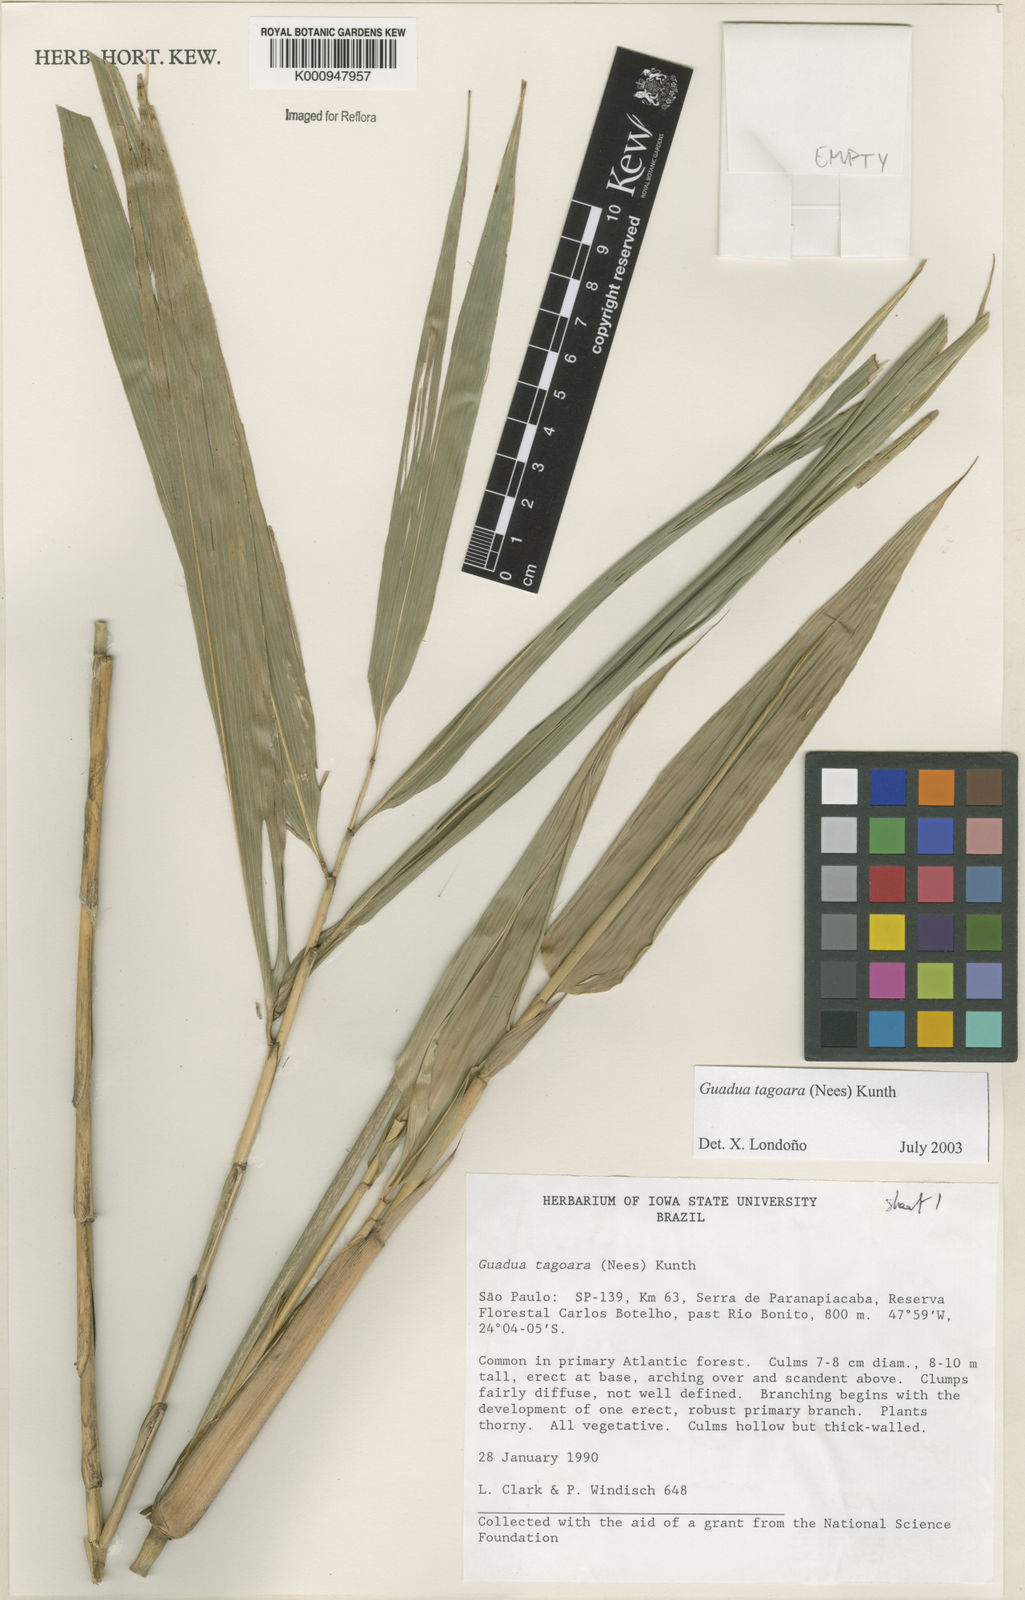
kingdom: Plantae
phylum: Tracheophyta
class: Liliopsida
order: Poales
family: Poaceae
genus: Guadua
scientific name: Guadua tagoara
